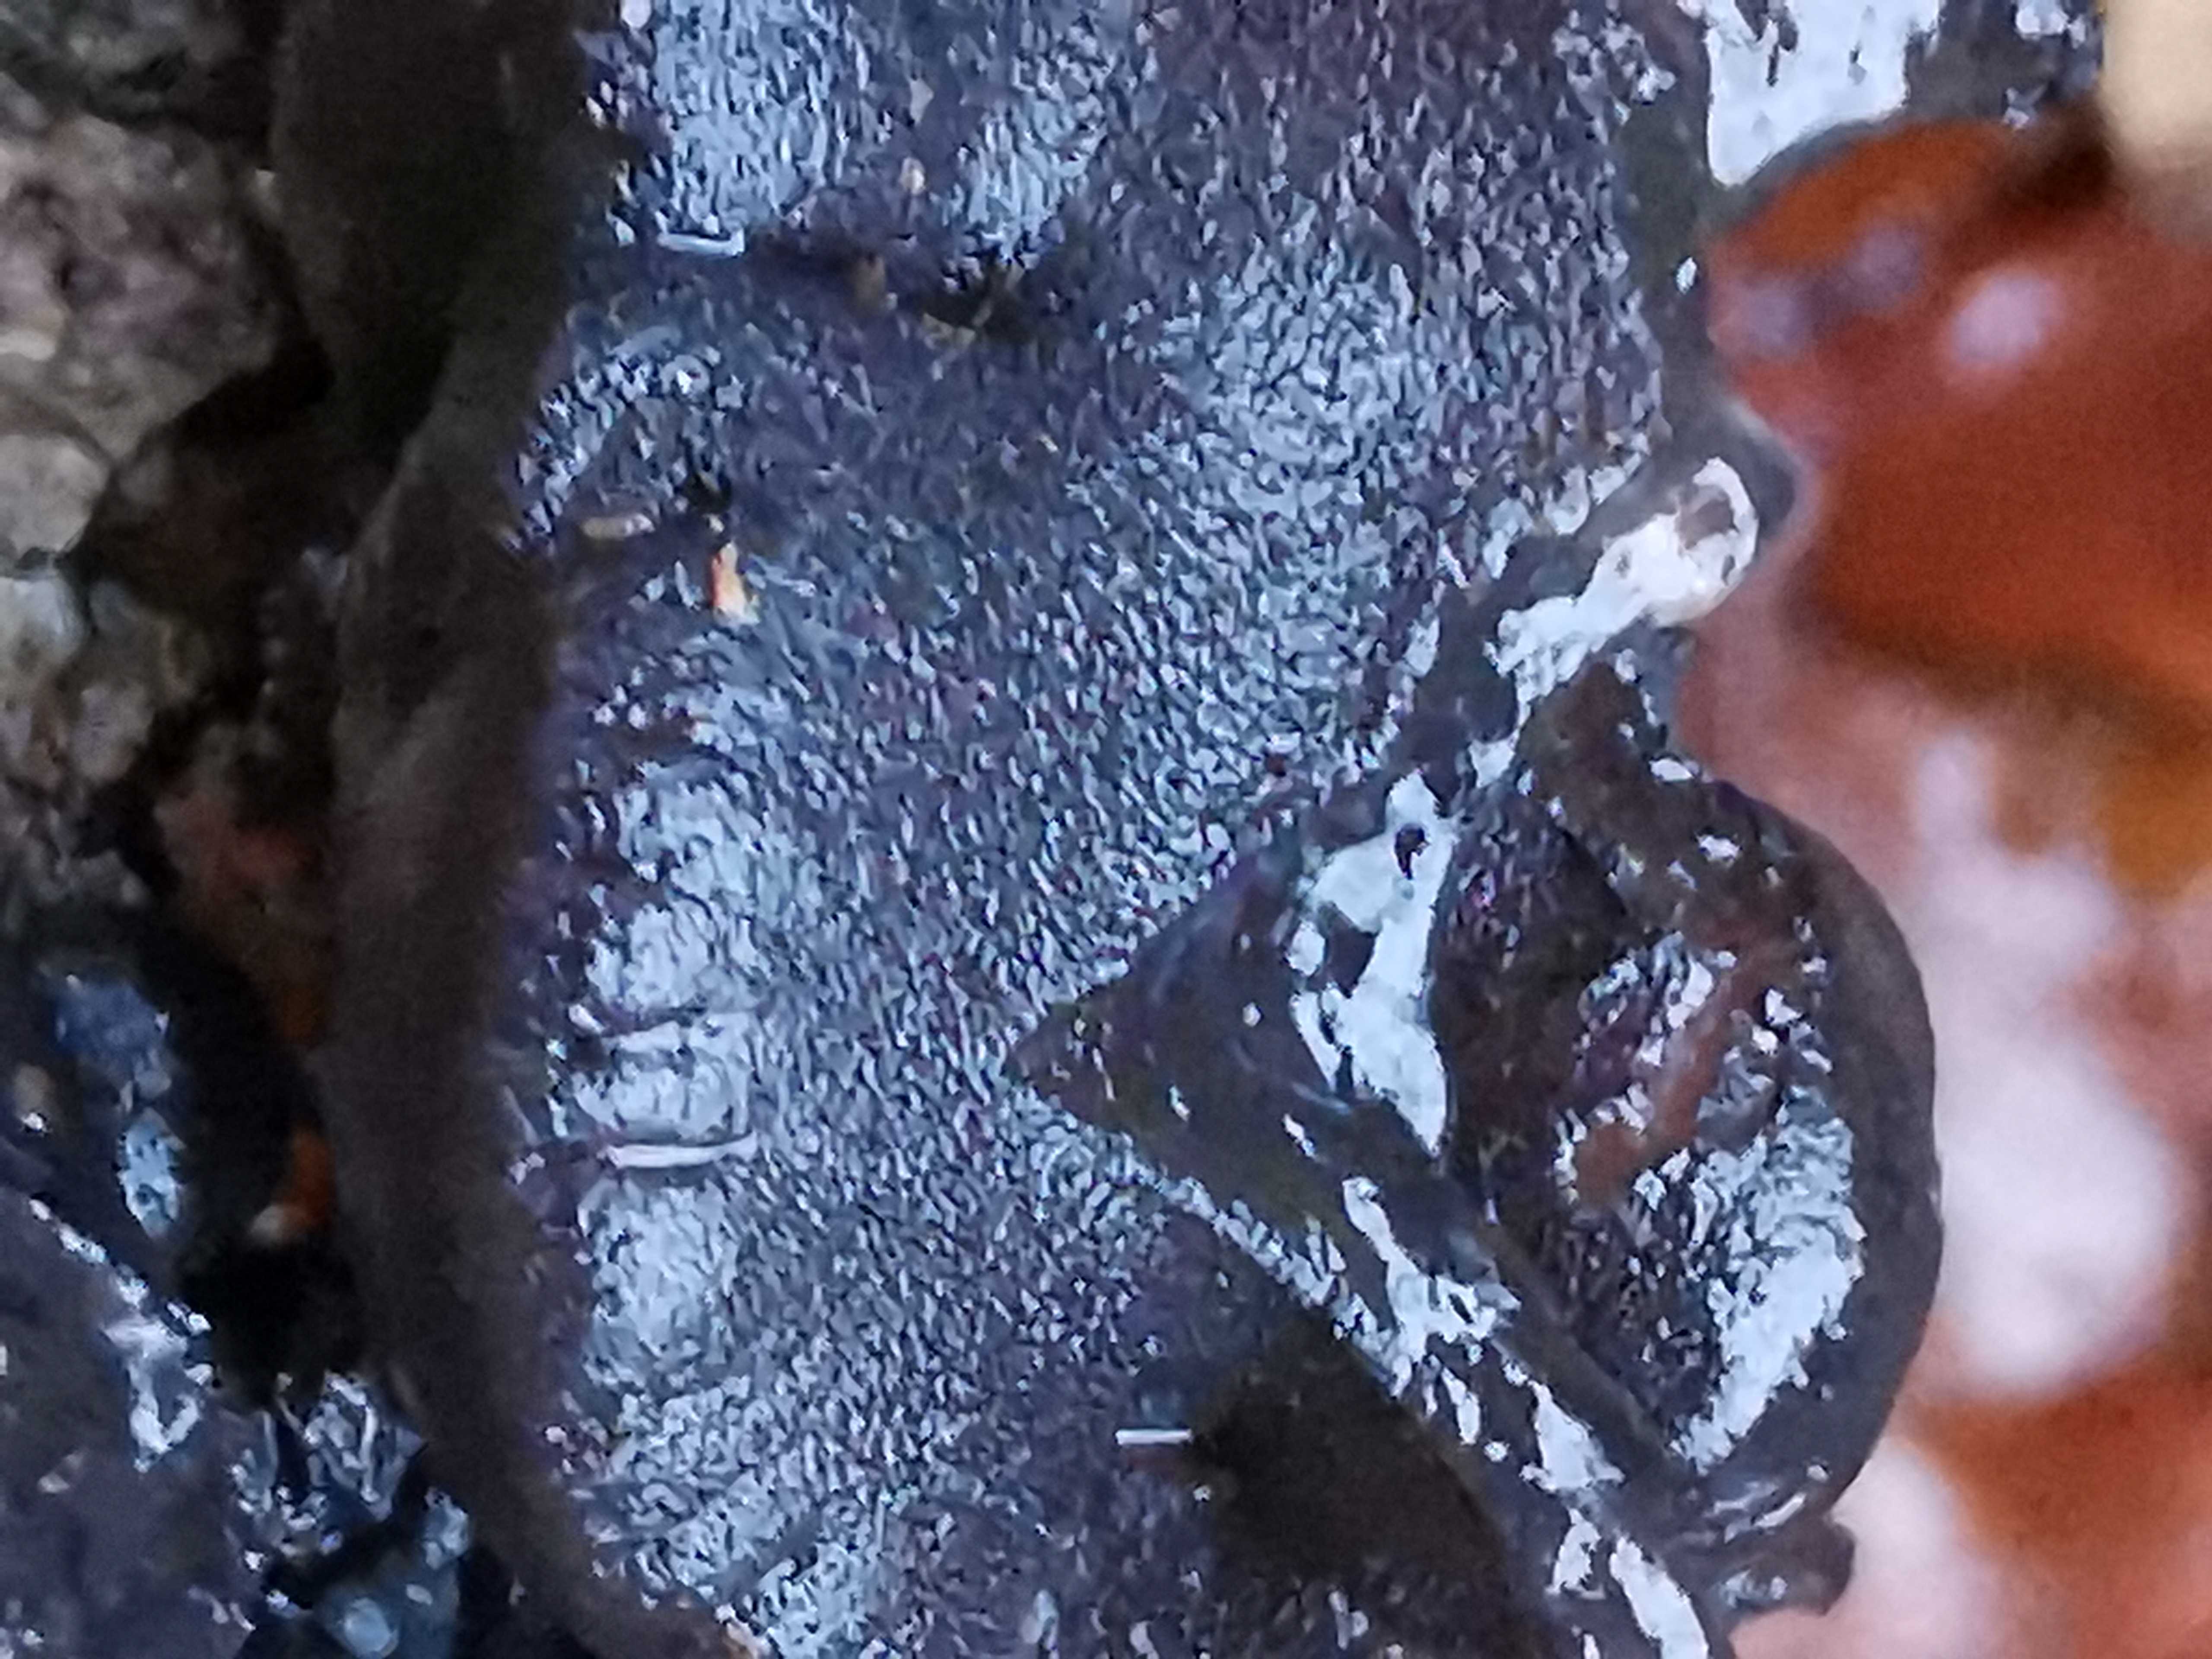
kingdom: Fungi
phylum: Basidiomycota
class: Agaricomycetes
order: Auriculariales
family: Auriculariaceae
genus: Exidia
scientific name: Exidia glandulosa
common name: ege-bævretop
